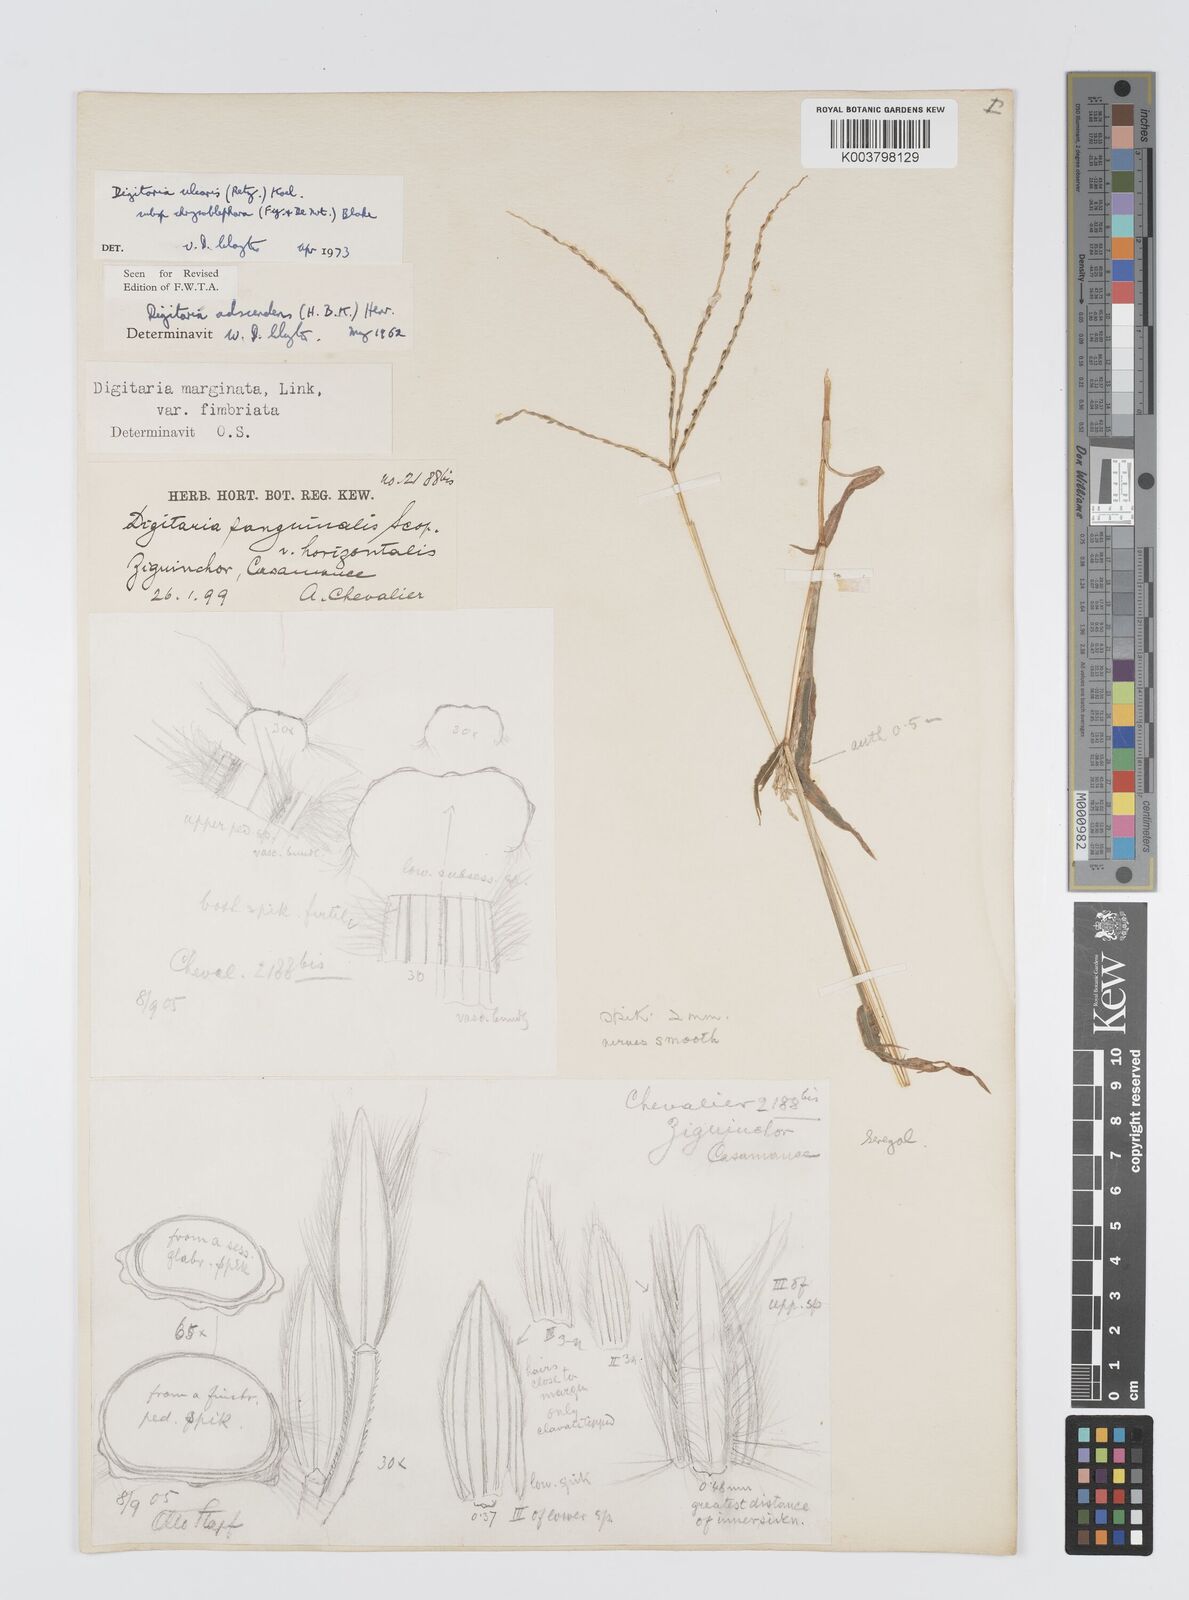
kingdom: Plantae
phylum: Tracheophyta
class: Liliopsida
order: Poales
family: Poaceae
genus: Digitaria
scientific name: Digitaria ciliaris
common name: Tropical finger-grass
